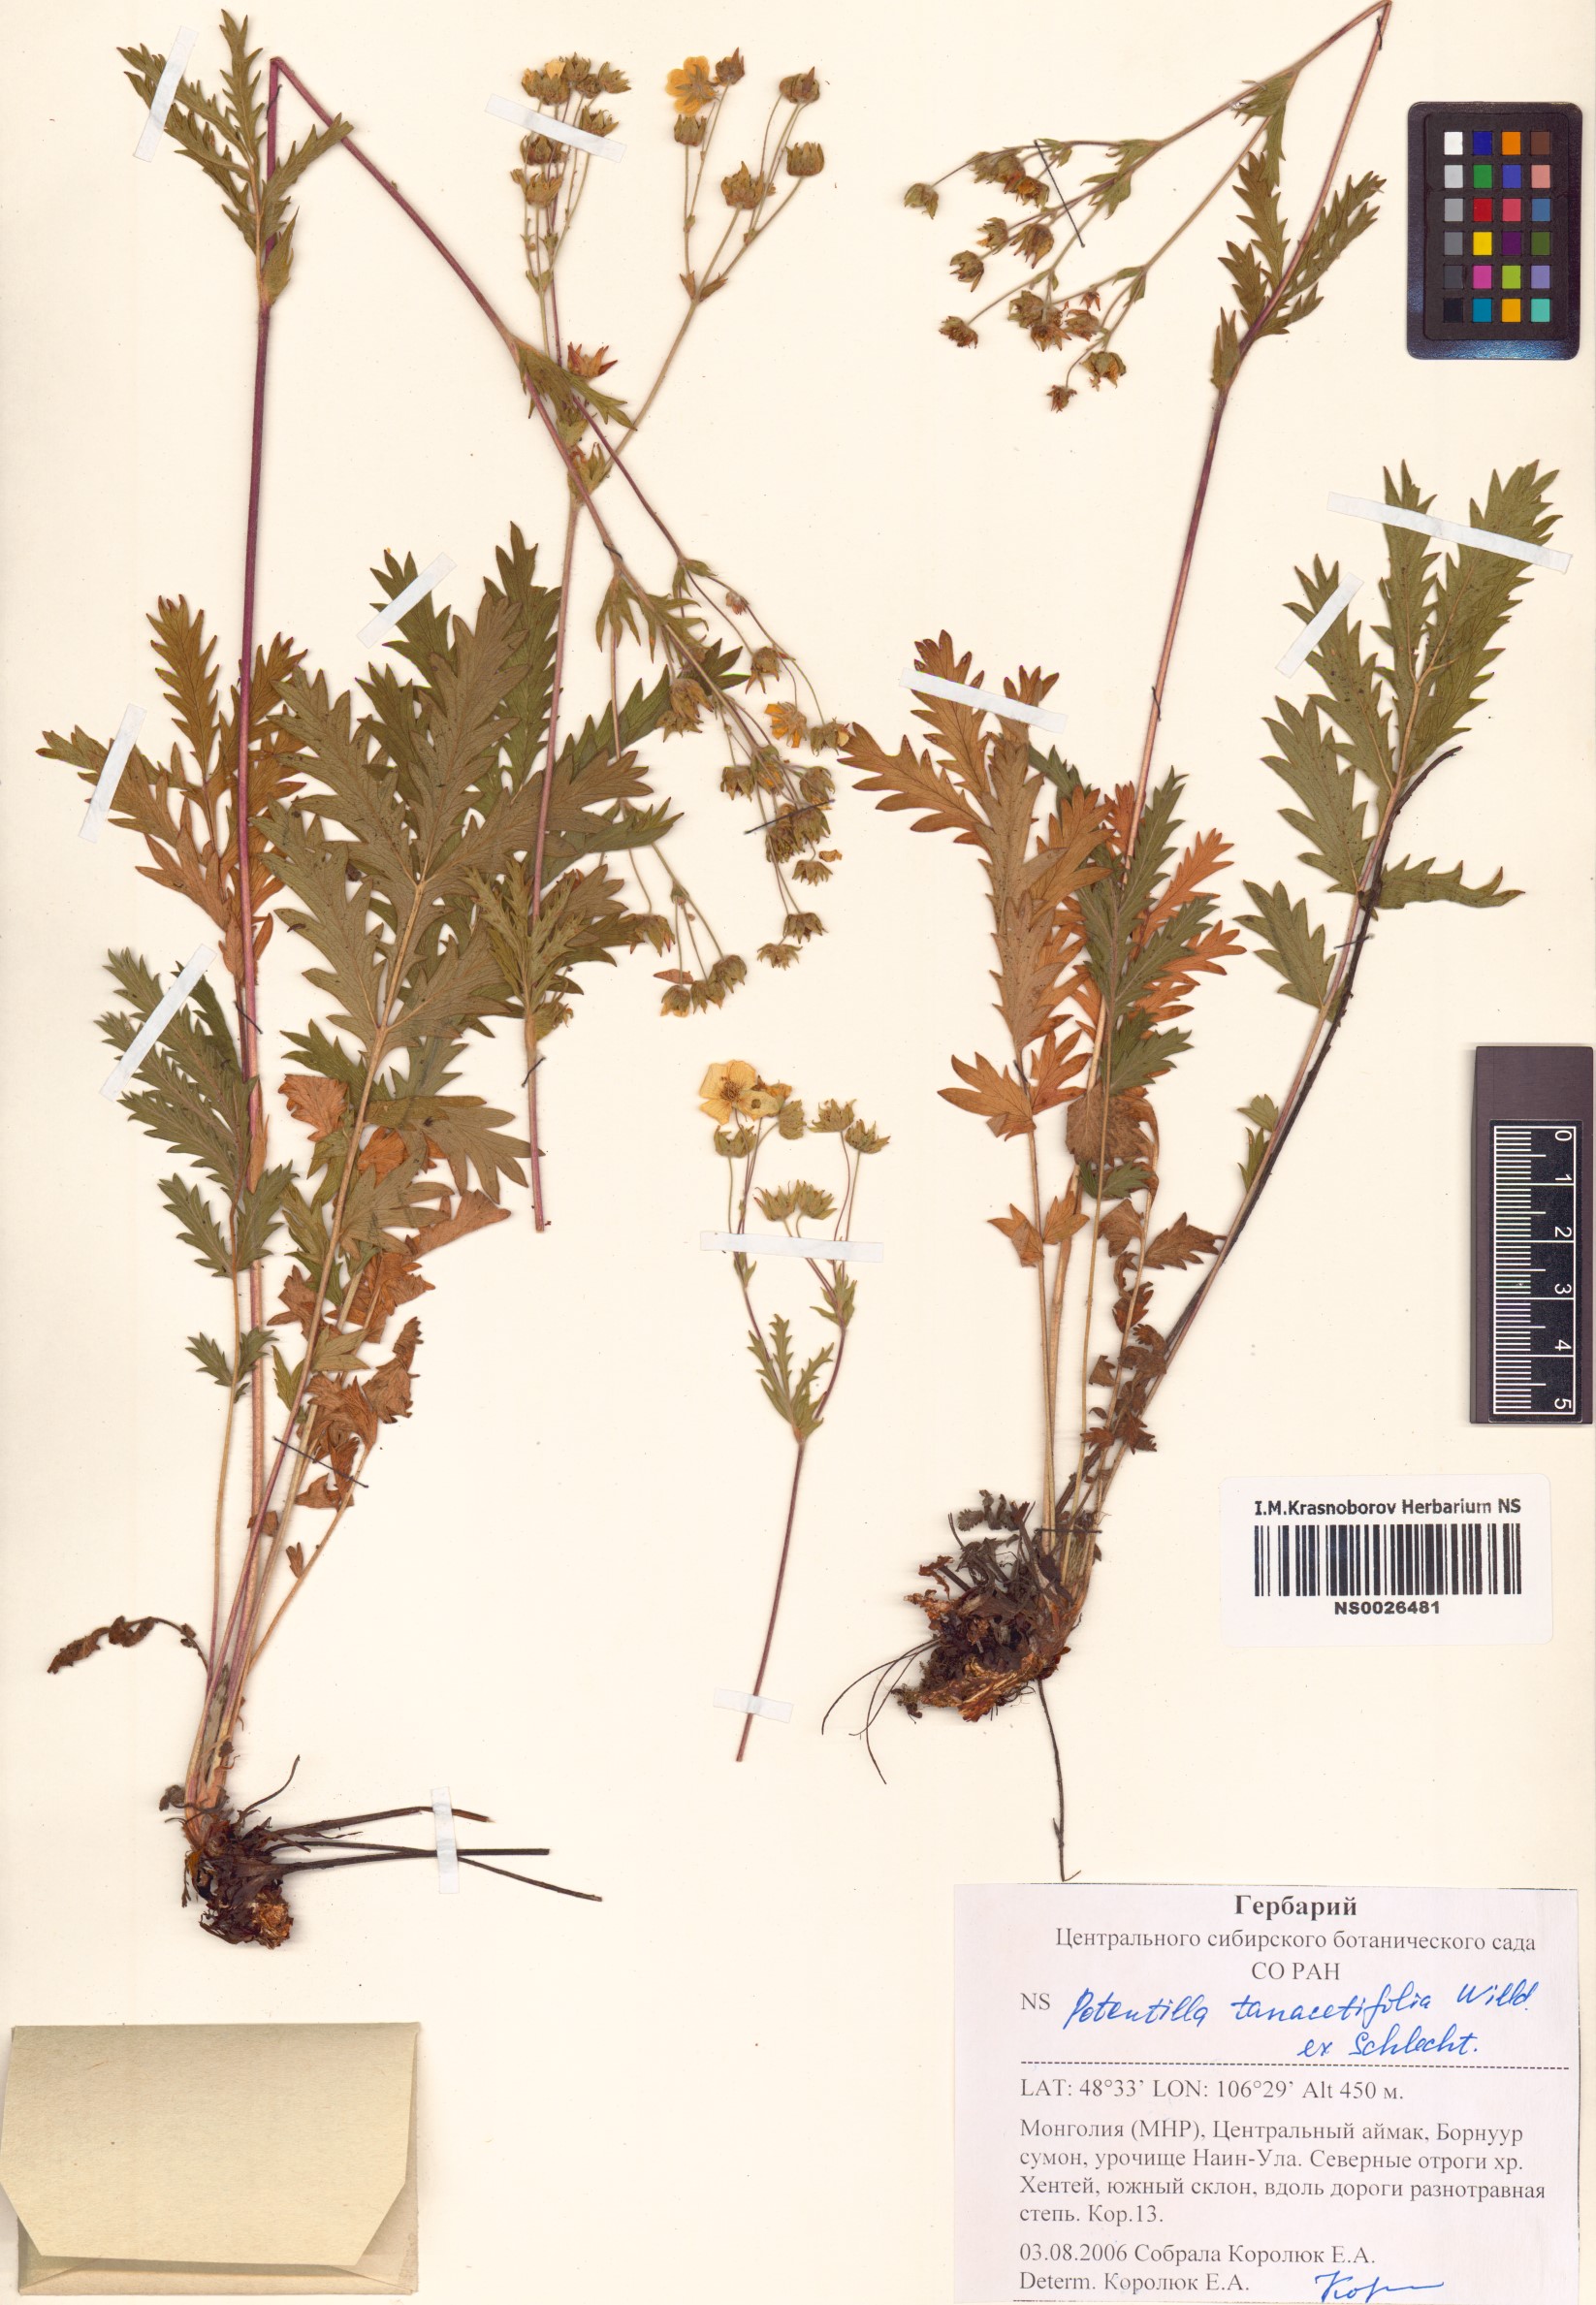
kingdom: Plantae
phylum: Tracheophyta
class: Magnoliopsida
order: Rosales
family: Rosaceae
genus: Potentilla
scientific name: Potentilla tanacetifolia
